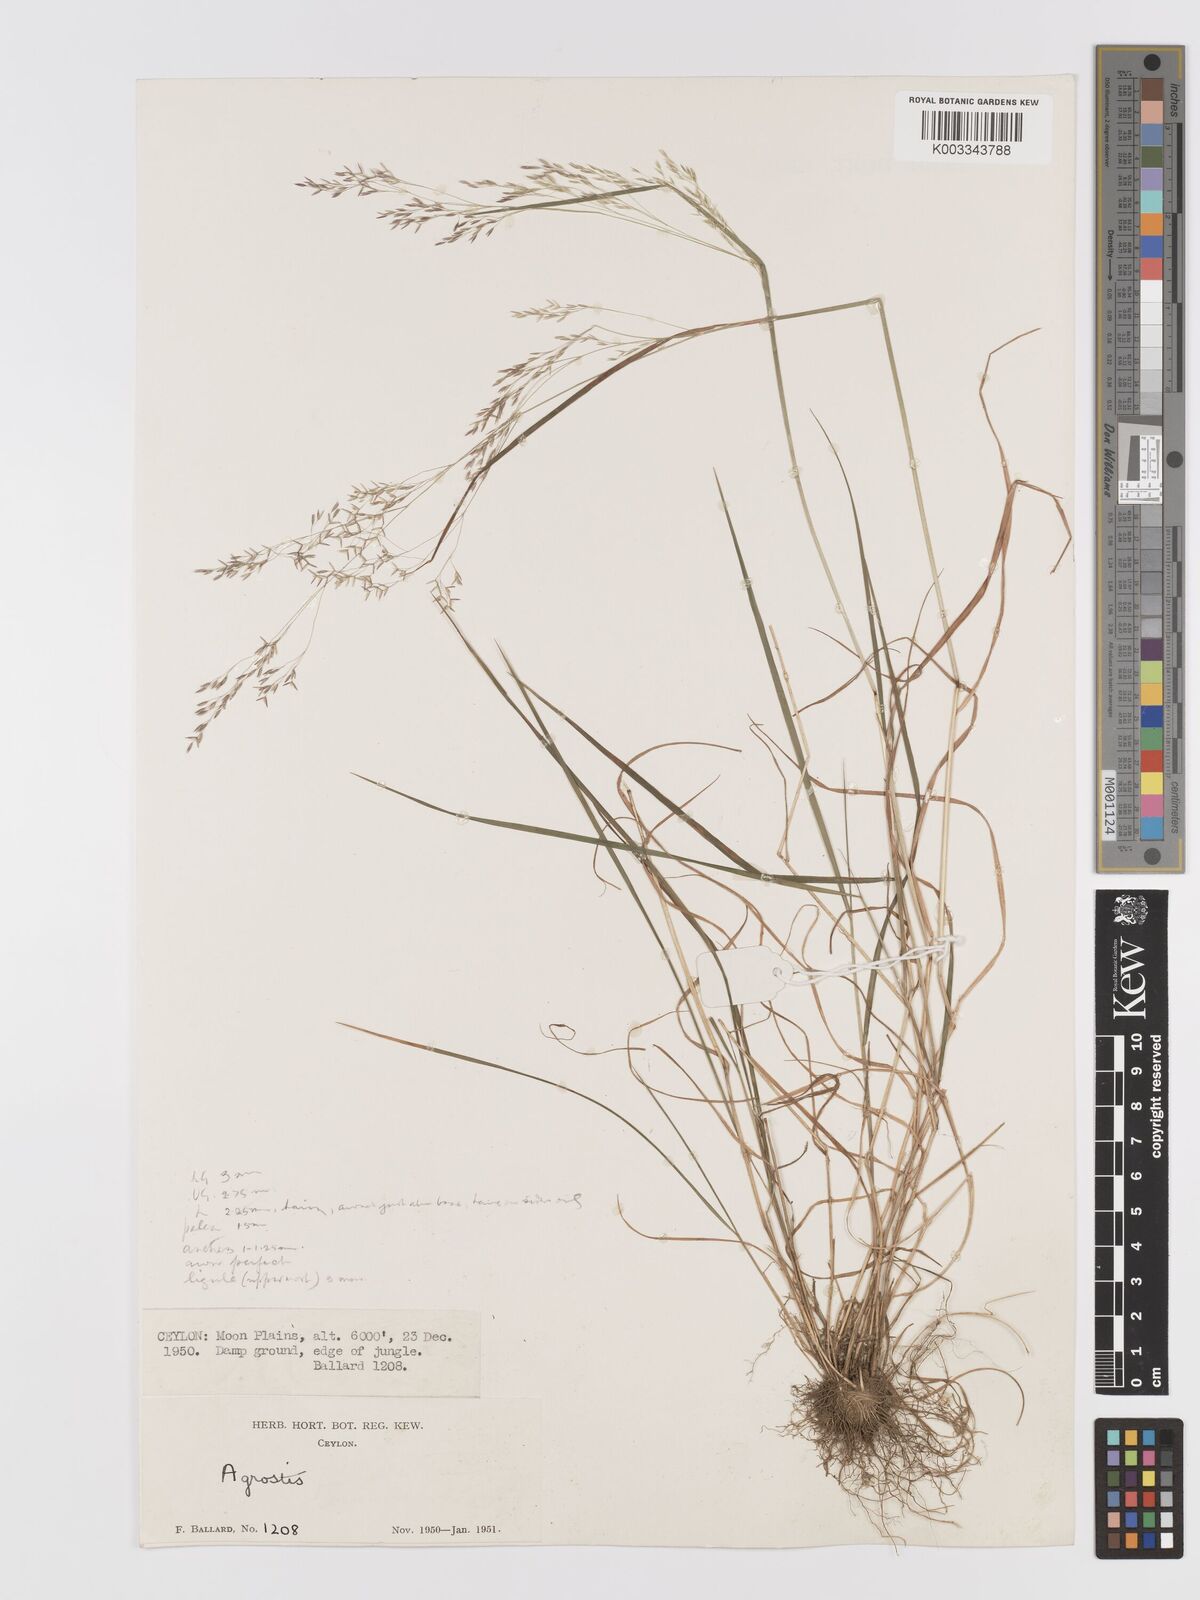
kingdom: Plantae
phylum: Tracheophyta
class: Liliopsida
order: Poales
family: Poaceae
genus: Agrostis
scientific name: Agrostis pilosula
